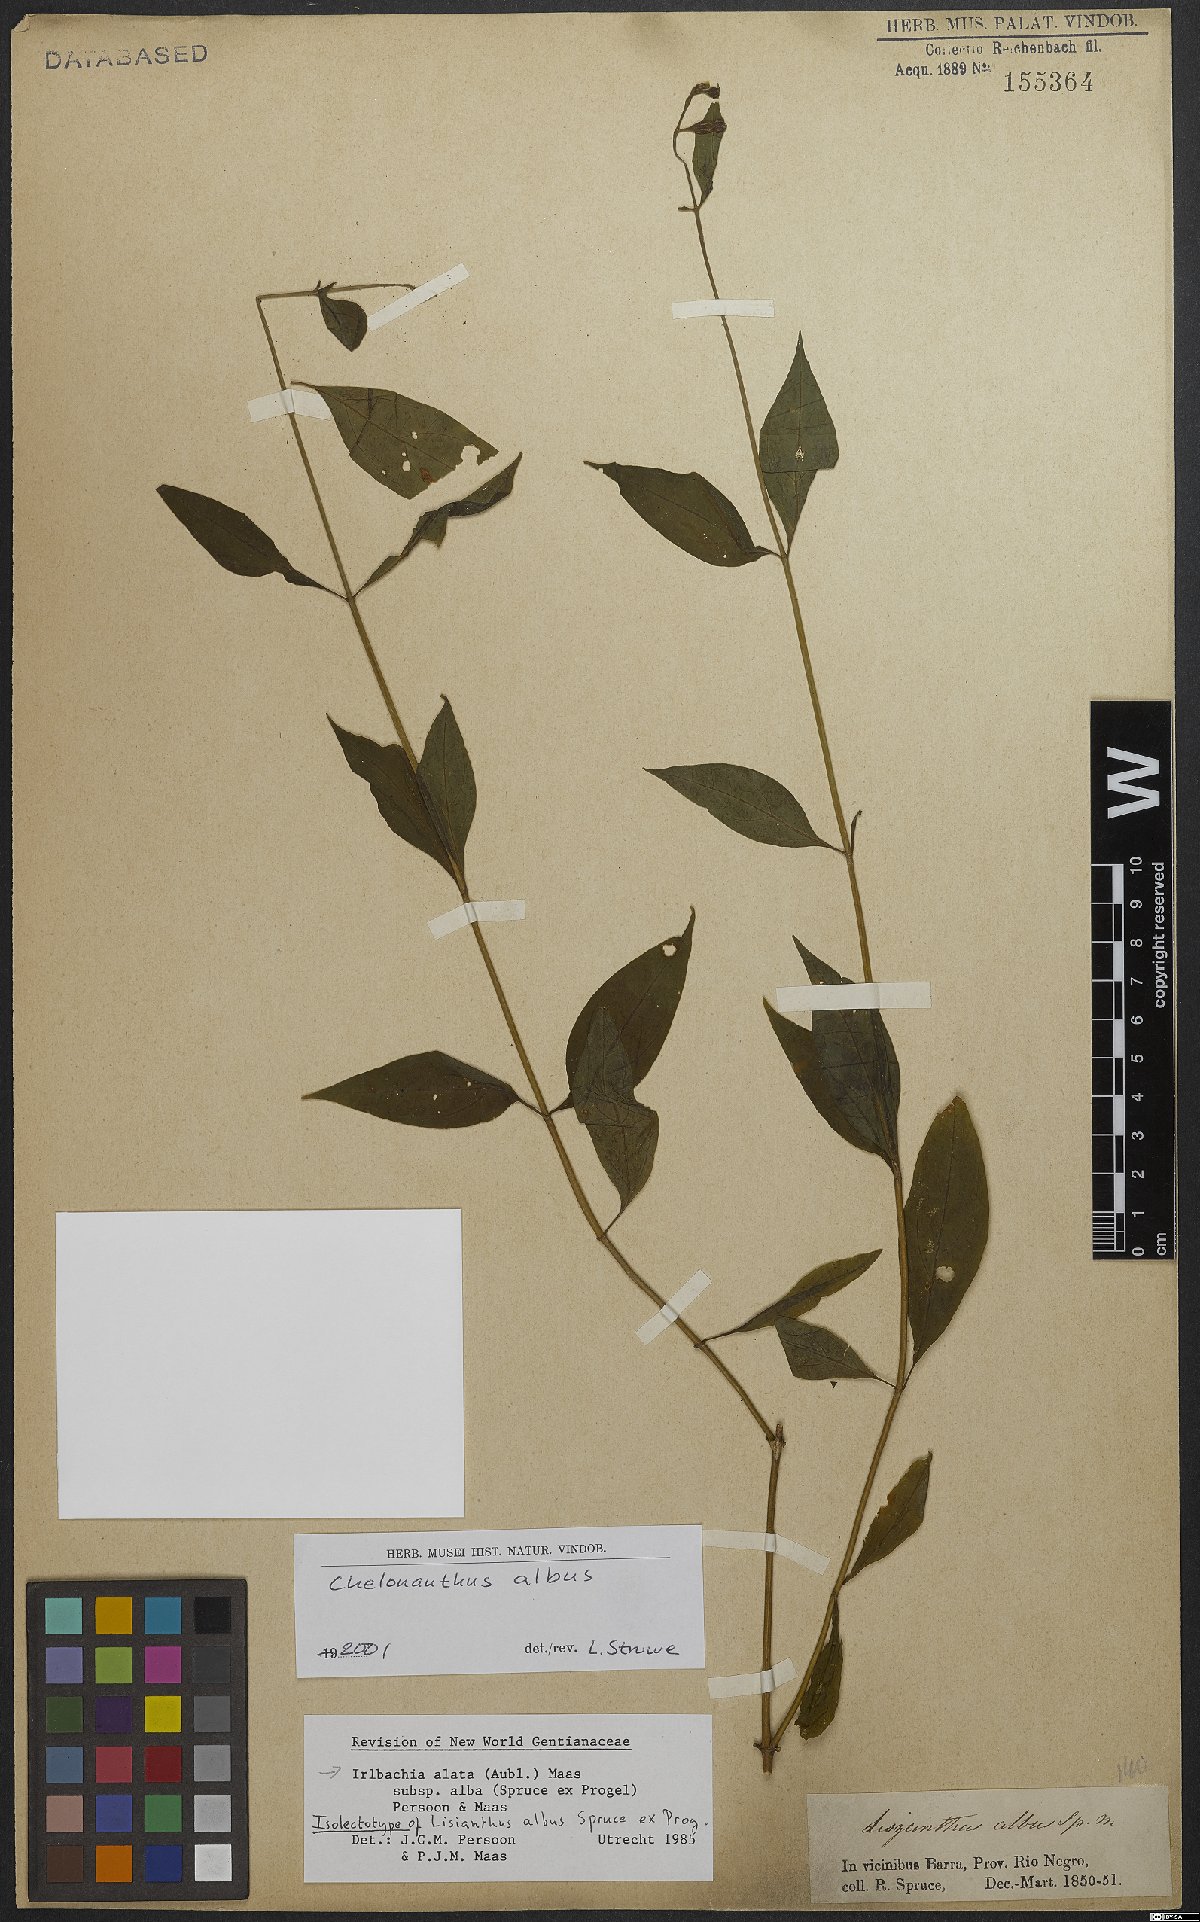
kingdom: Plantae
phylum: Tracheophyta
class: Magnoliopsida
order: Gentianales
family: Gentianaceae
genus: Chelonanthus
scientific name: Chelonanthus albus
